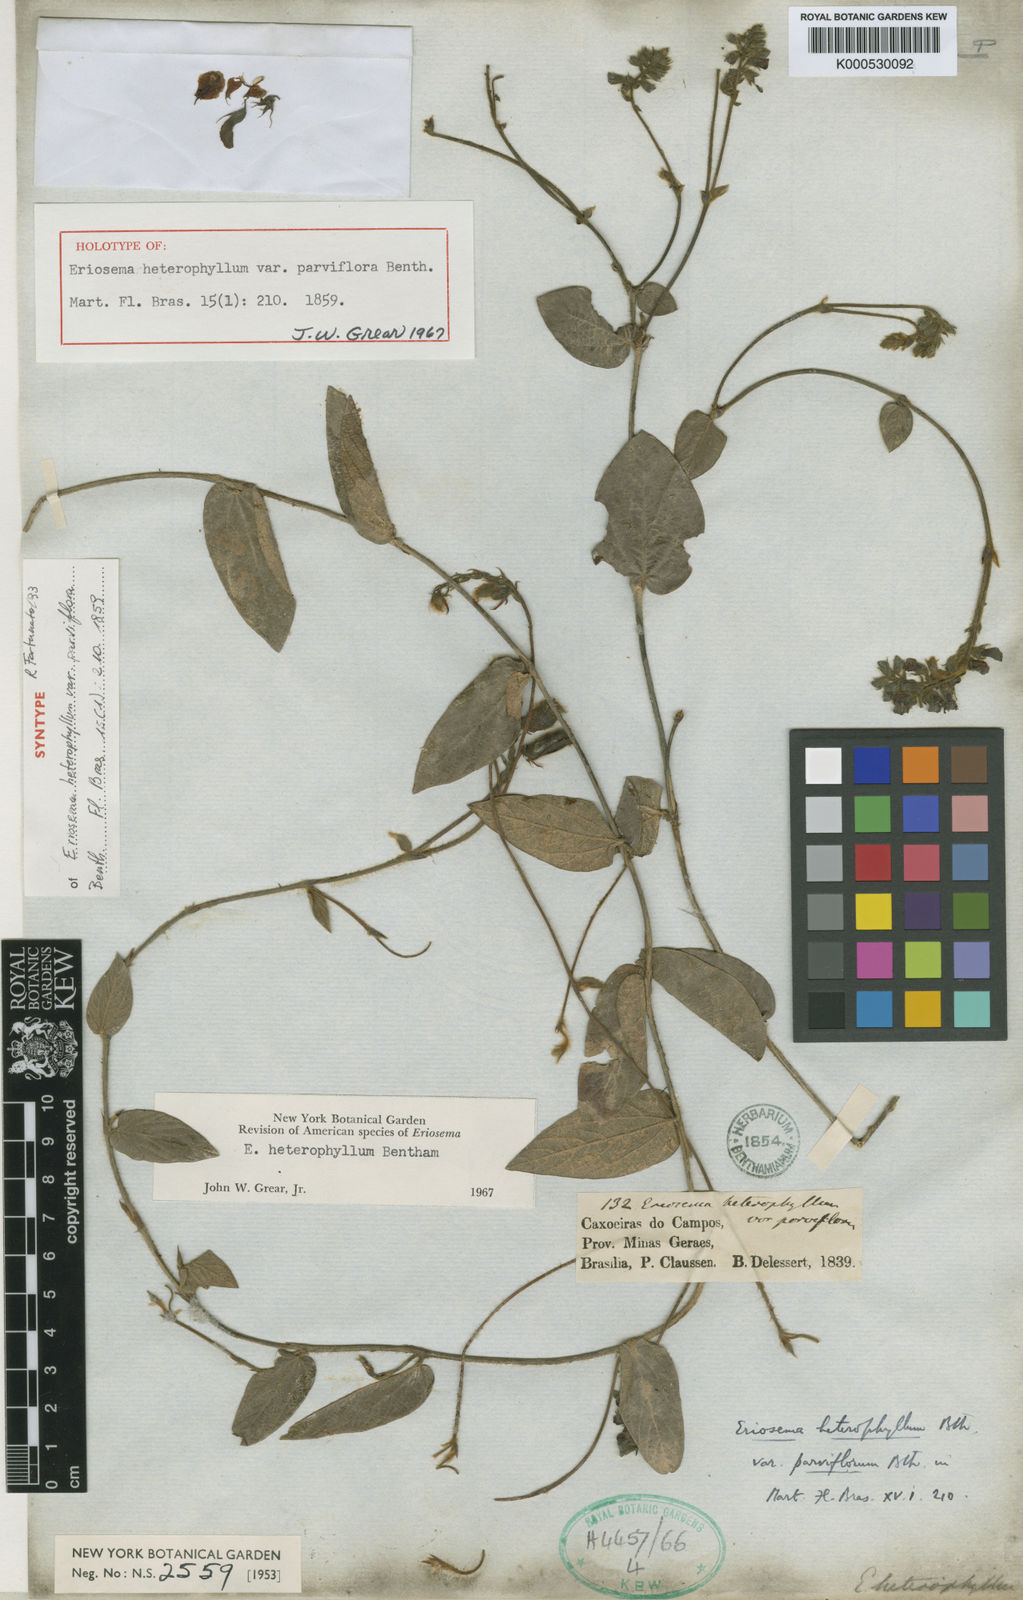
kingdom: Plantae
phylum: Tracheophyta
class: Magnoliopsida
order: Fabales
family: Fabaceae
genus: Eriosema
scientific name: Eriosema heterophyllum
